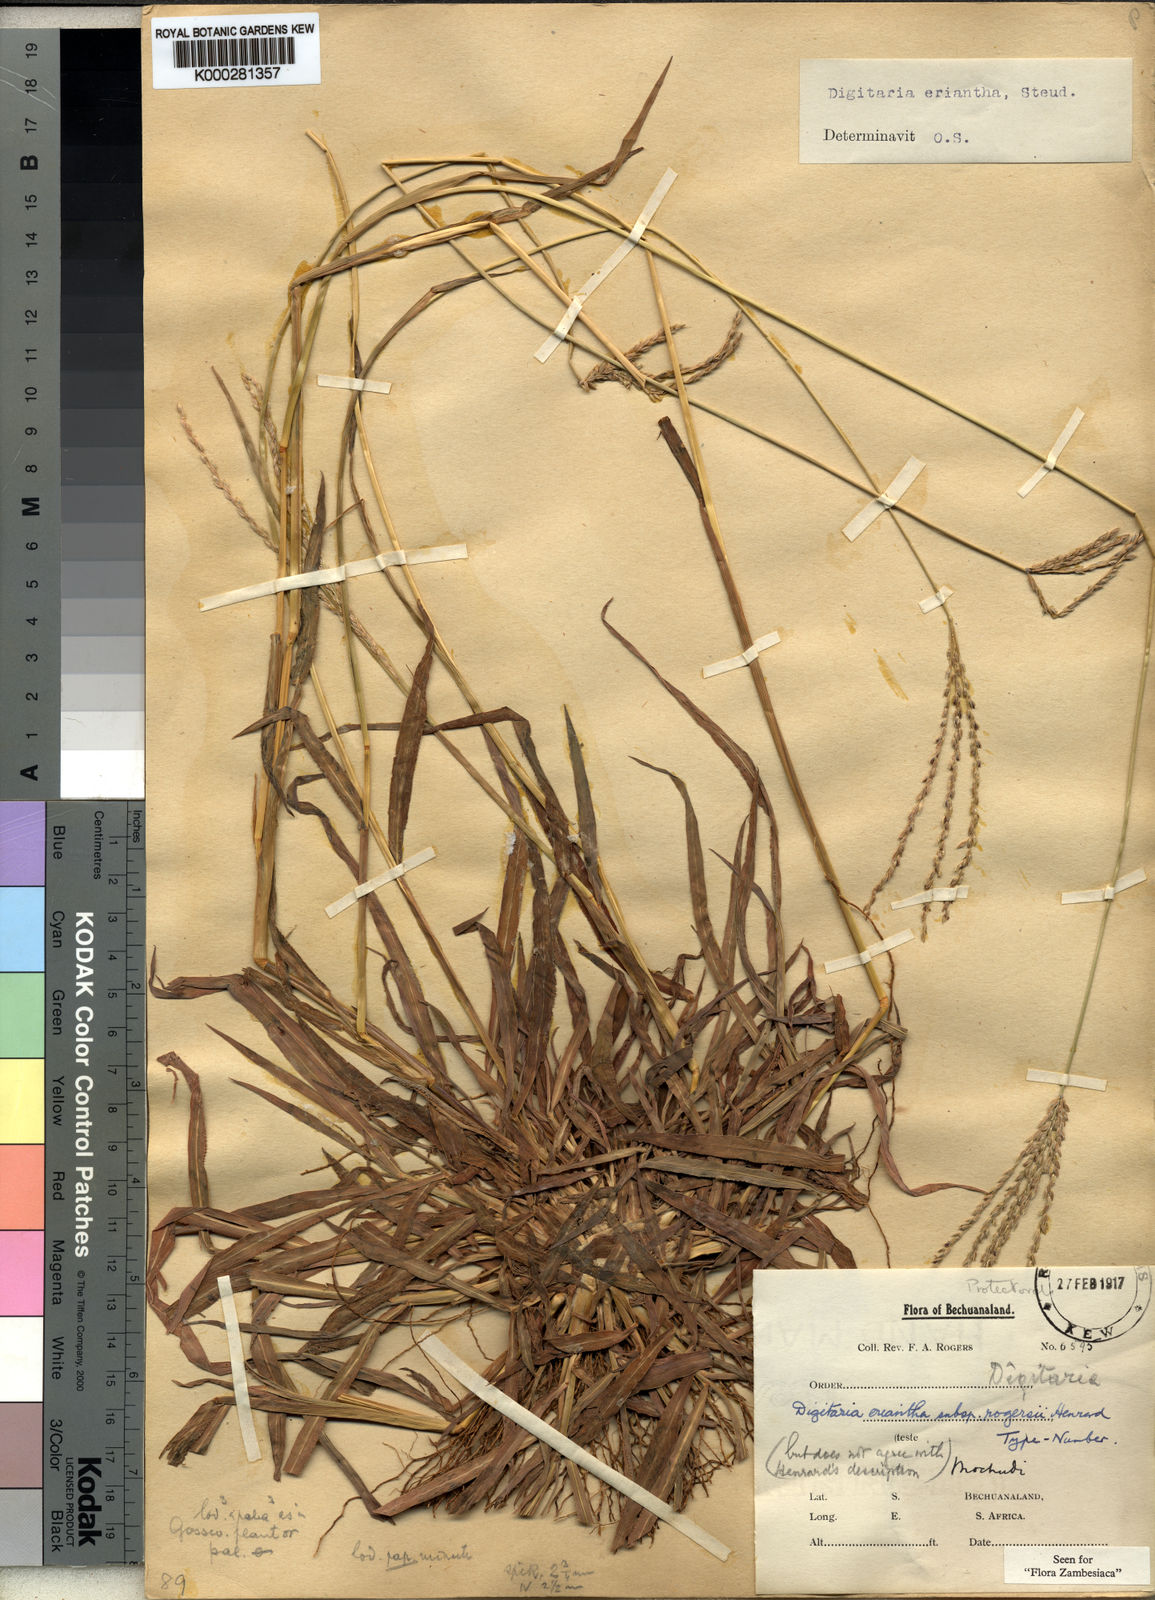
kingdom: Plantae
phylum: Tracheophyta
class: Liliopsida
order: Poales
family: Poaceae
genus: Digitaria
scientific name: Digitaria eriantha
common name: Digitgrass
